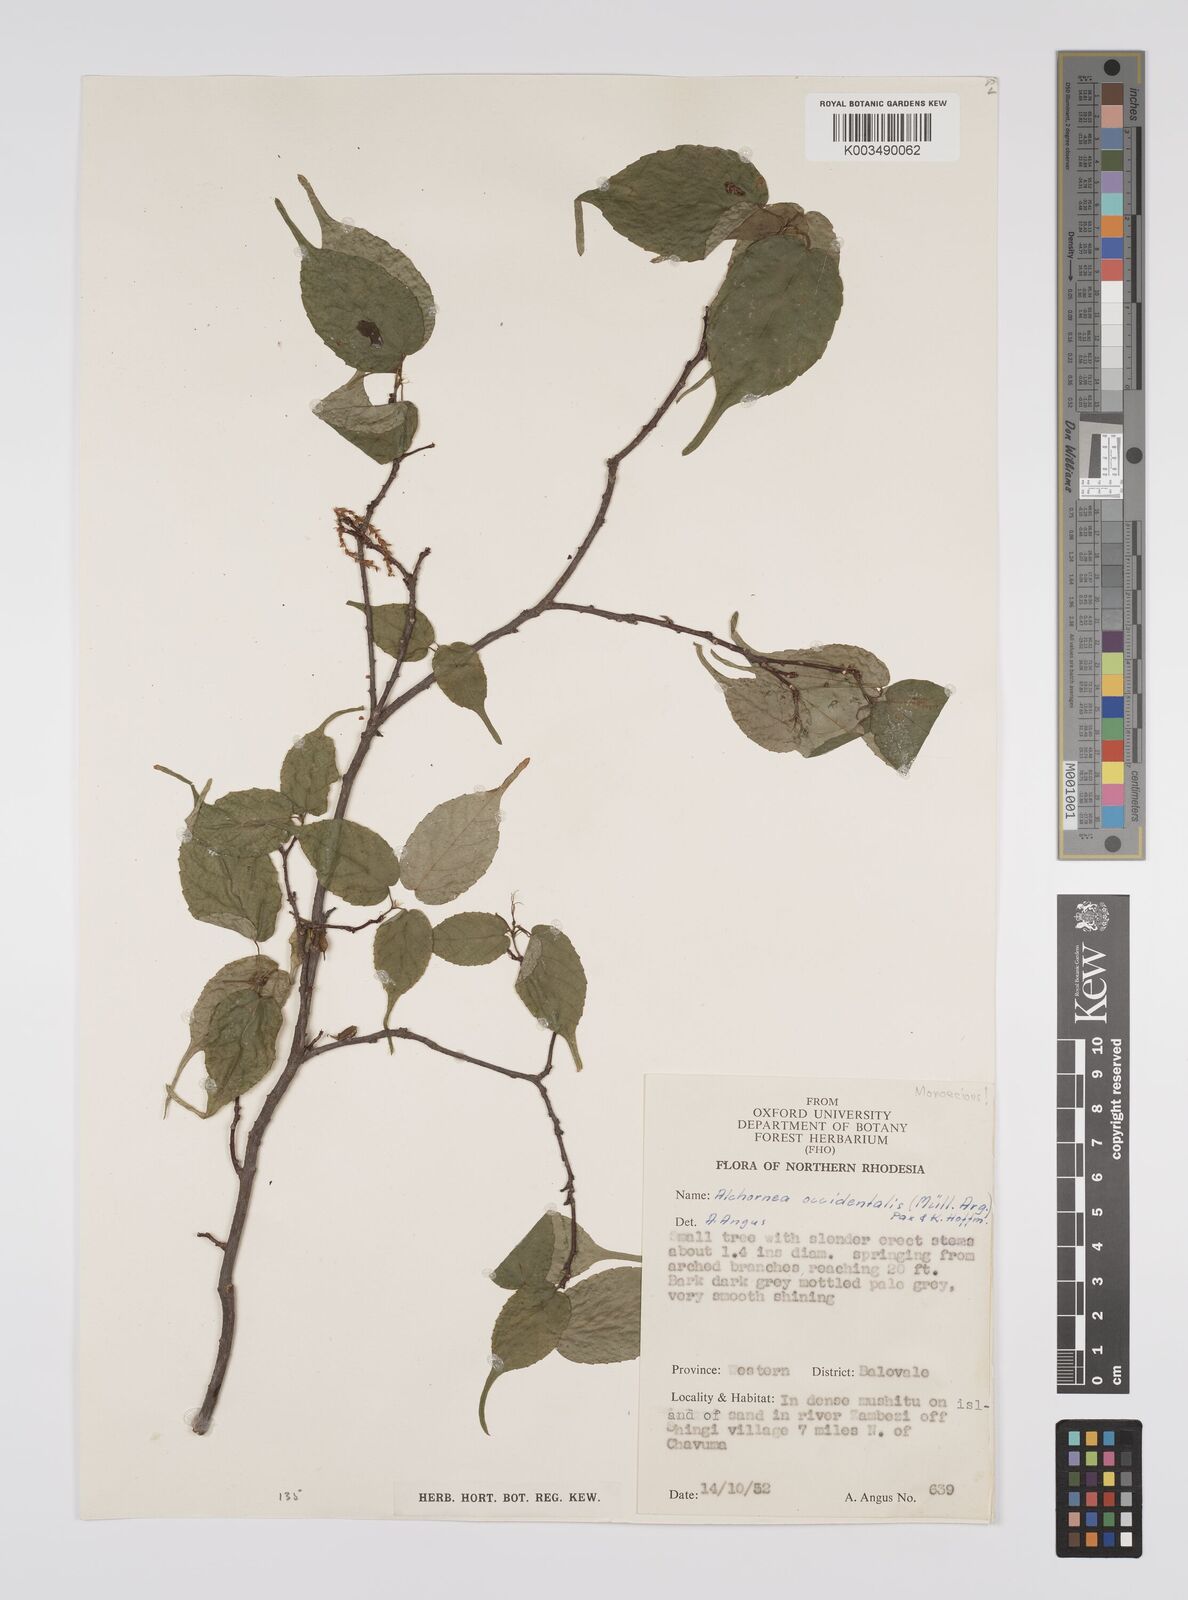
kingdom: Plantae
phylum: Tracheophyta
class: Magnoliopsida
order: Malpighiales
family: Euphorbiaceae
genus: Alchornea
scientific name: Alchornea occidentalis
